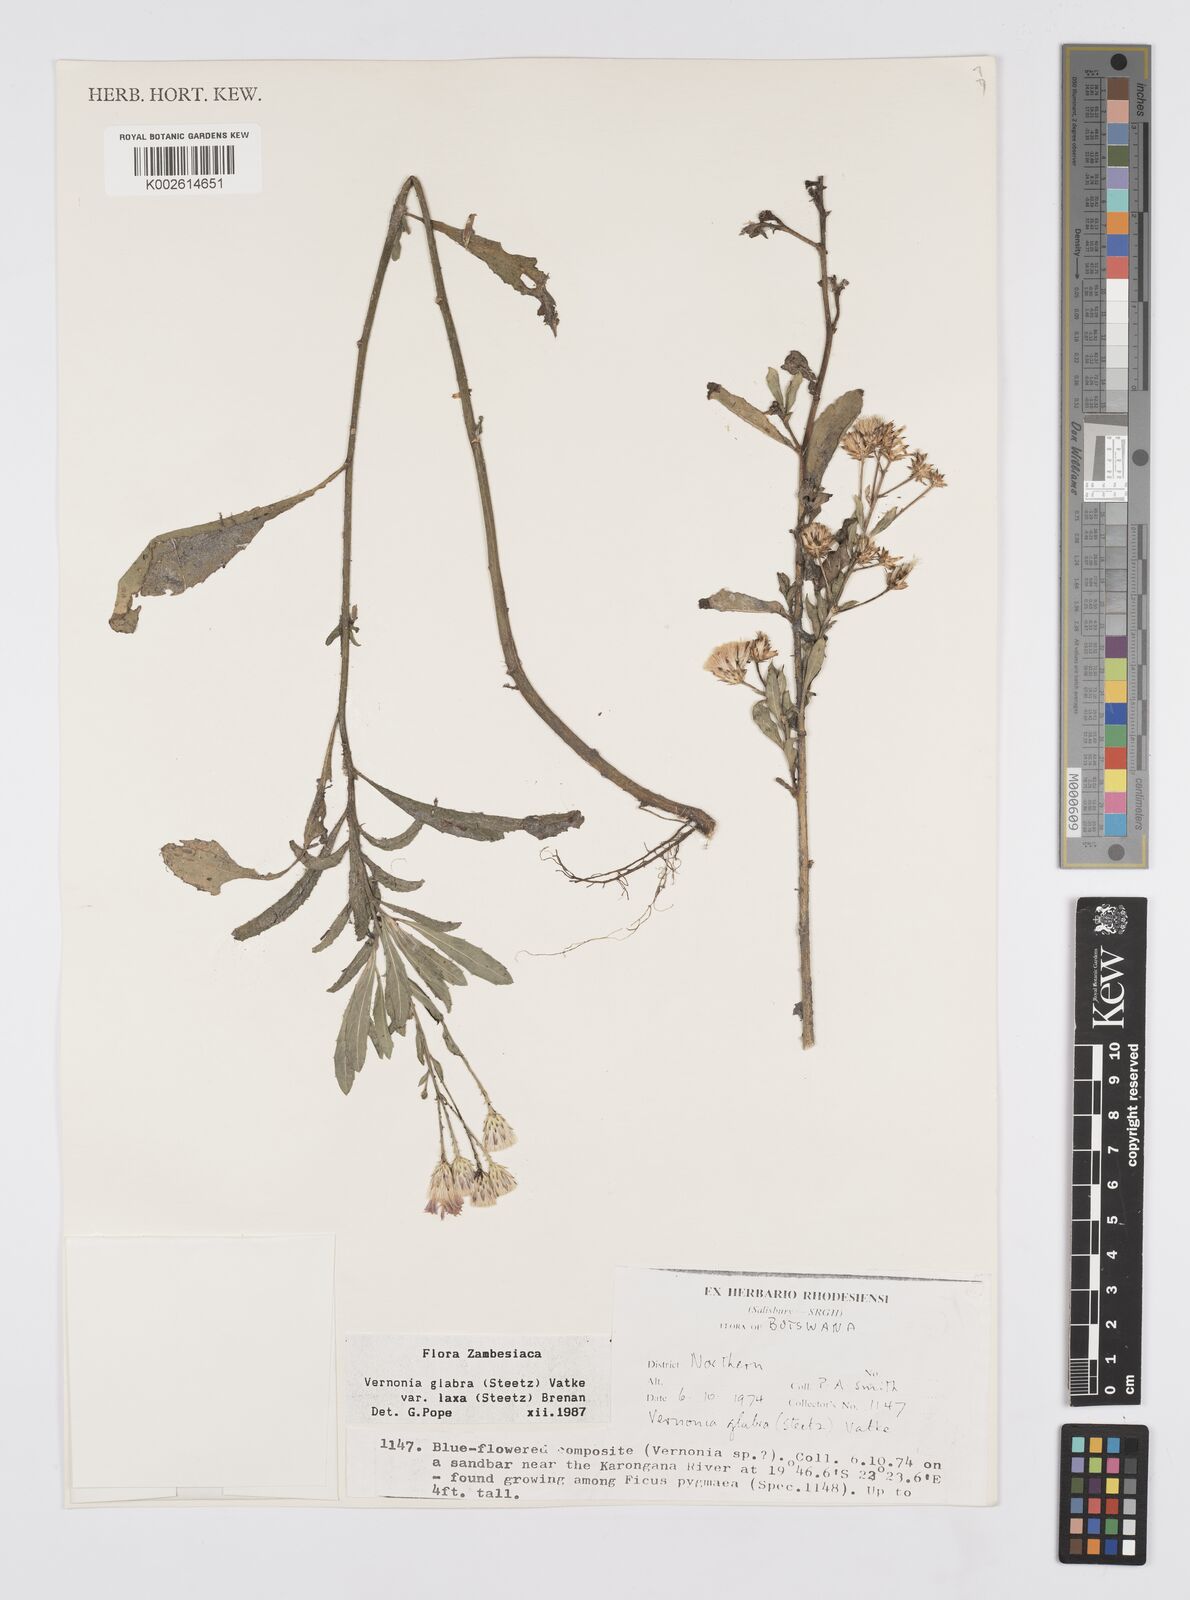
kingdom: Plantae
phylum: Tracheophyta
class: Magnoliopsida
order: Asterales
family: Asteraceae
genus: Linzia
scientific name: Linzia glabra
